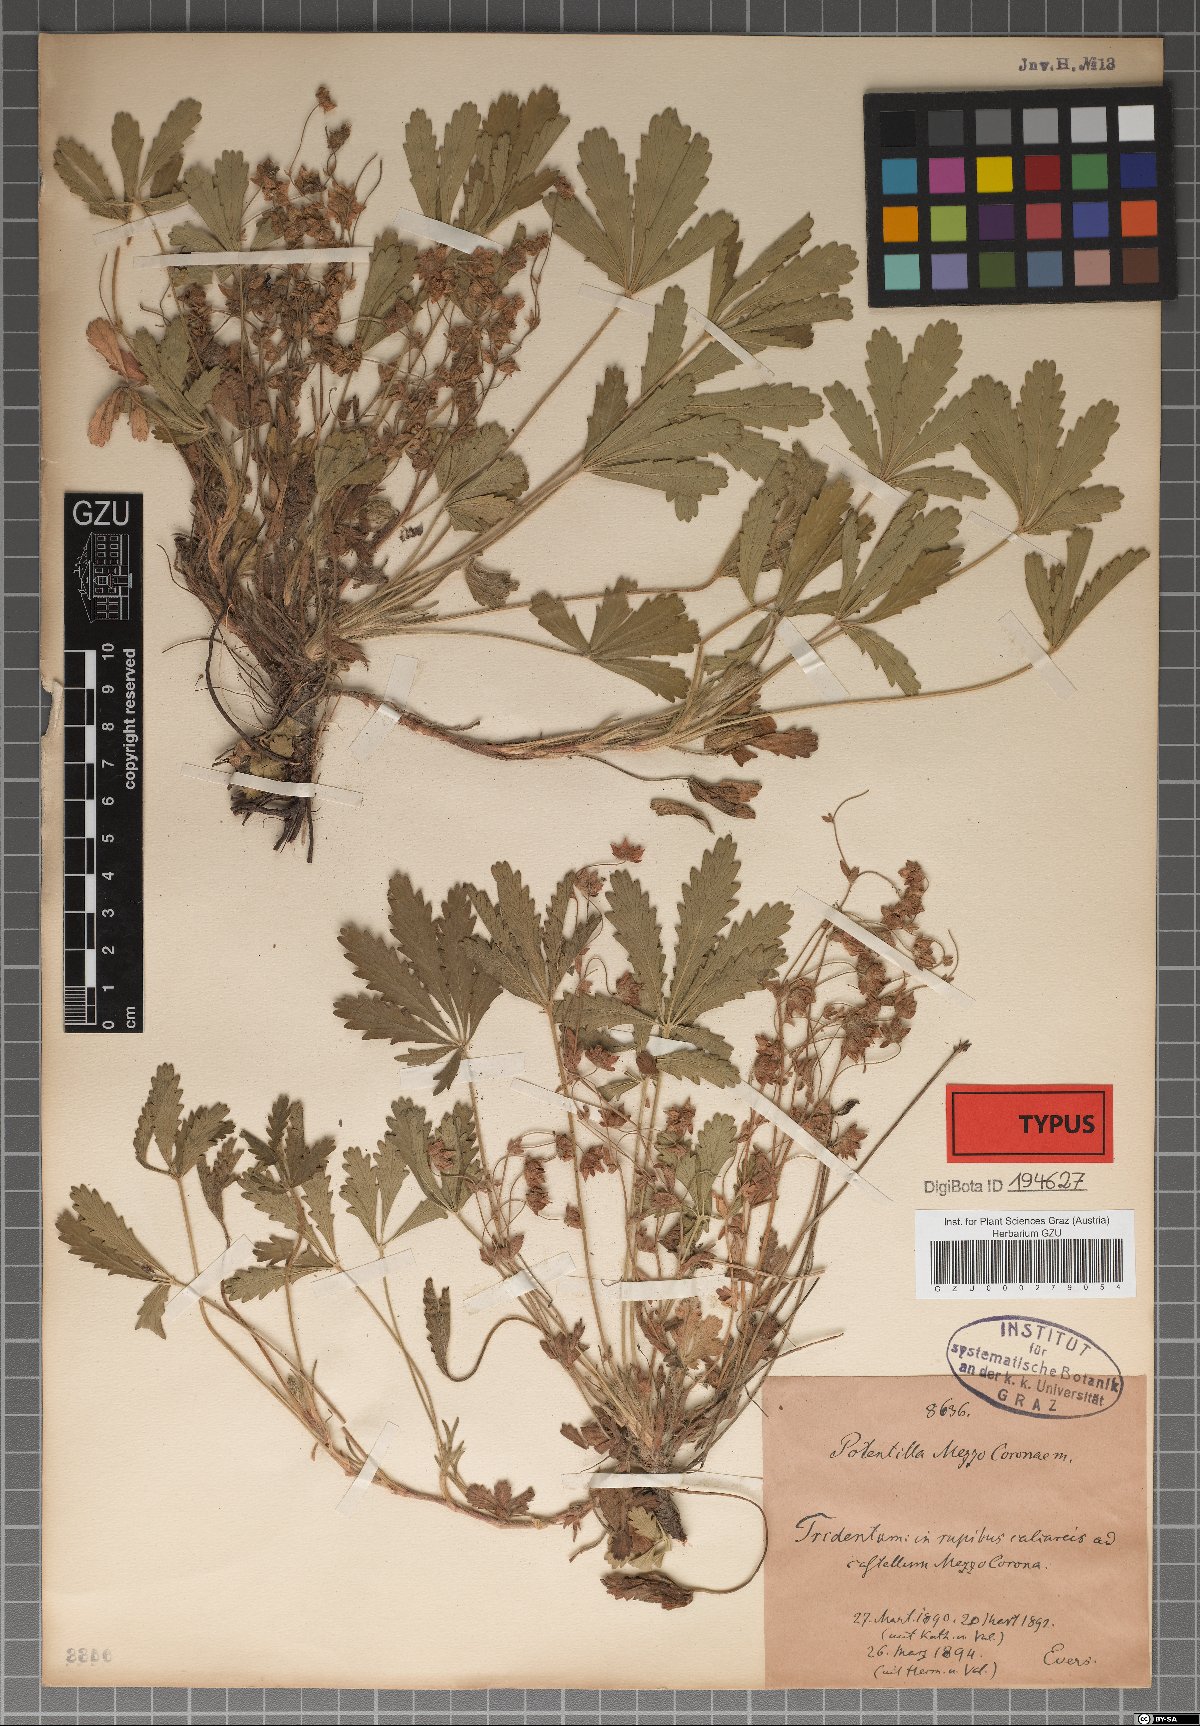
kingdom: Plantae
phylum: Tracheophyta
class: Magnoliopsida
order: Rosales
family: Rosaceae
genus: Potentilla
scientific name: Potentilla pusilla
